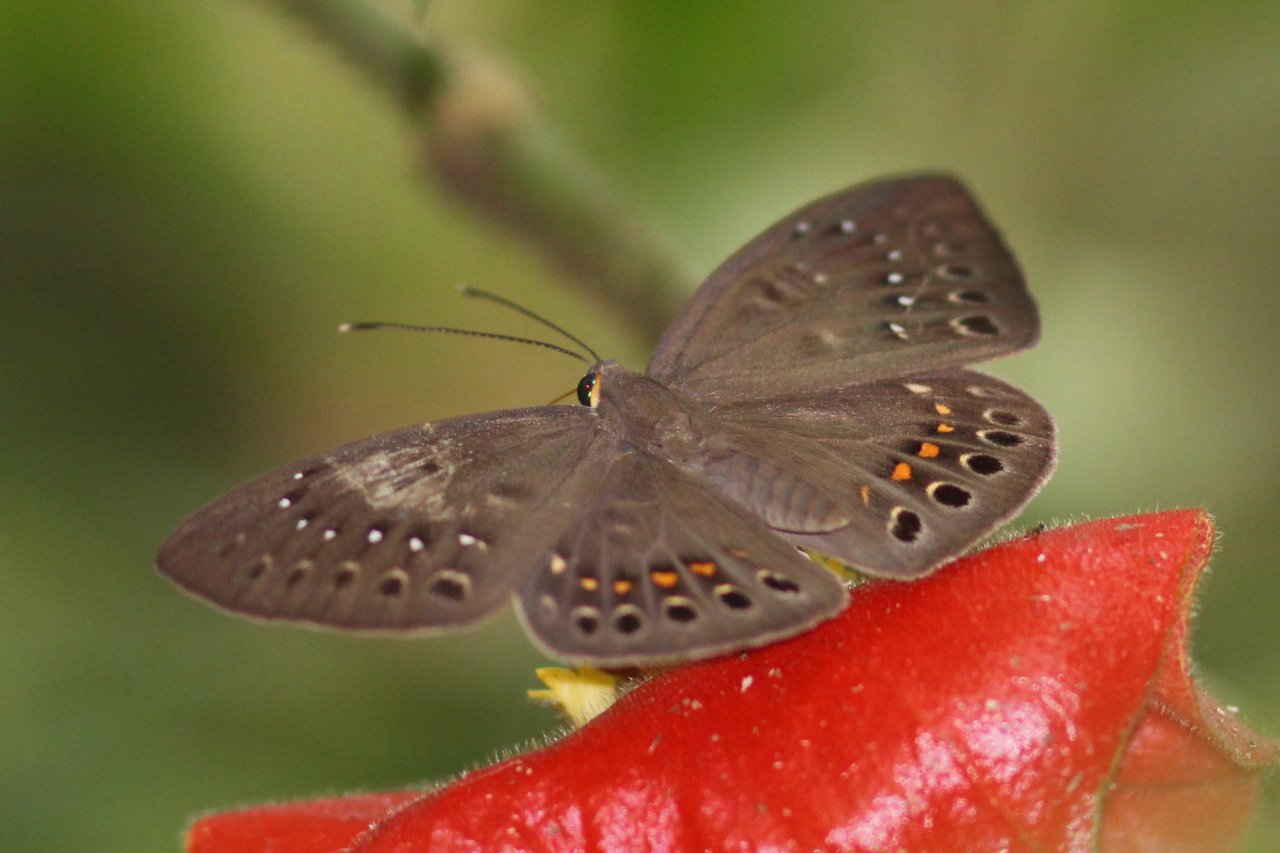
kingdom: Animalia
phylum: Cnidaria
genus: Eurybia
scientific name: Eurybia elvina
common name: Blind Eurybia
